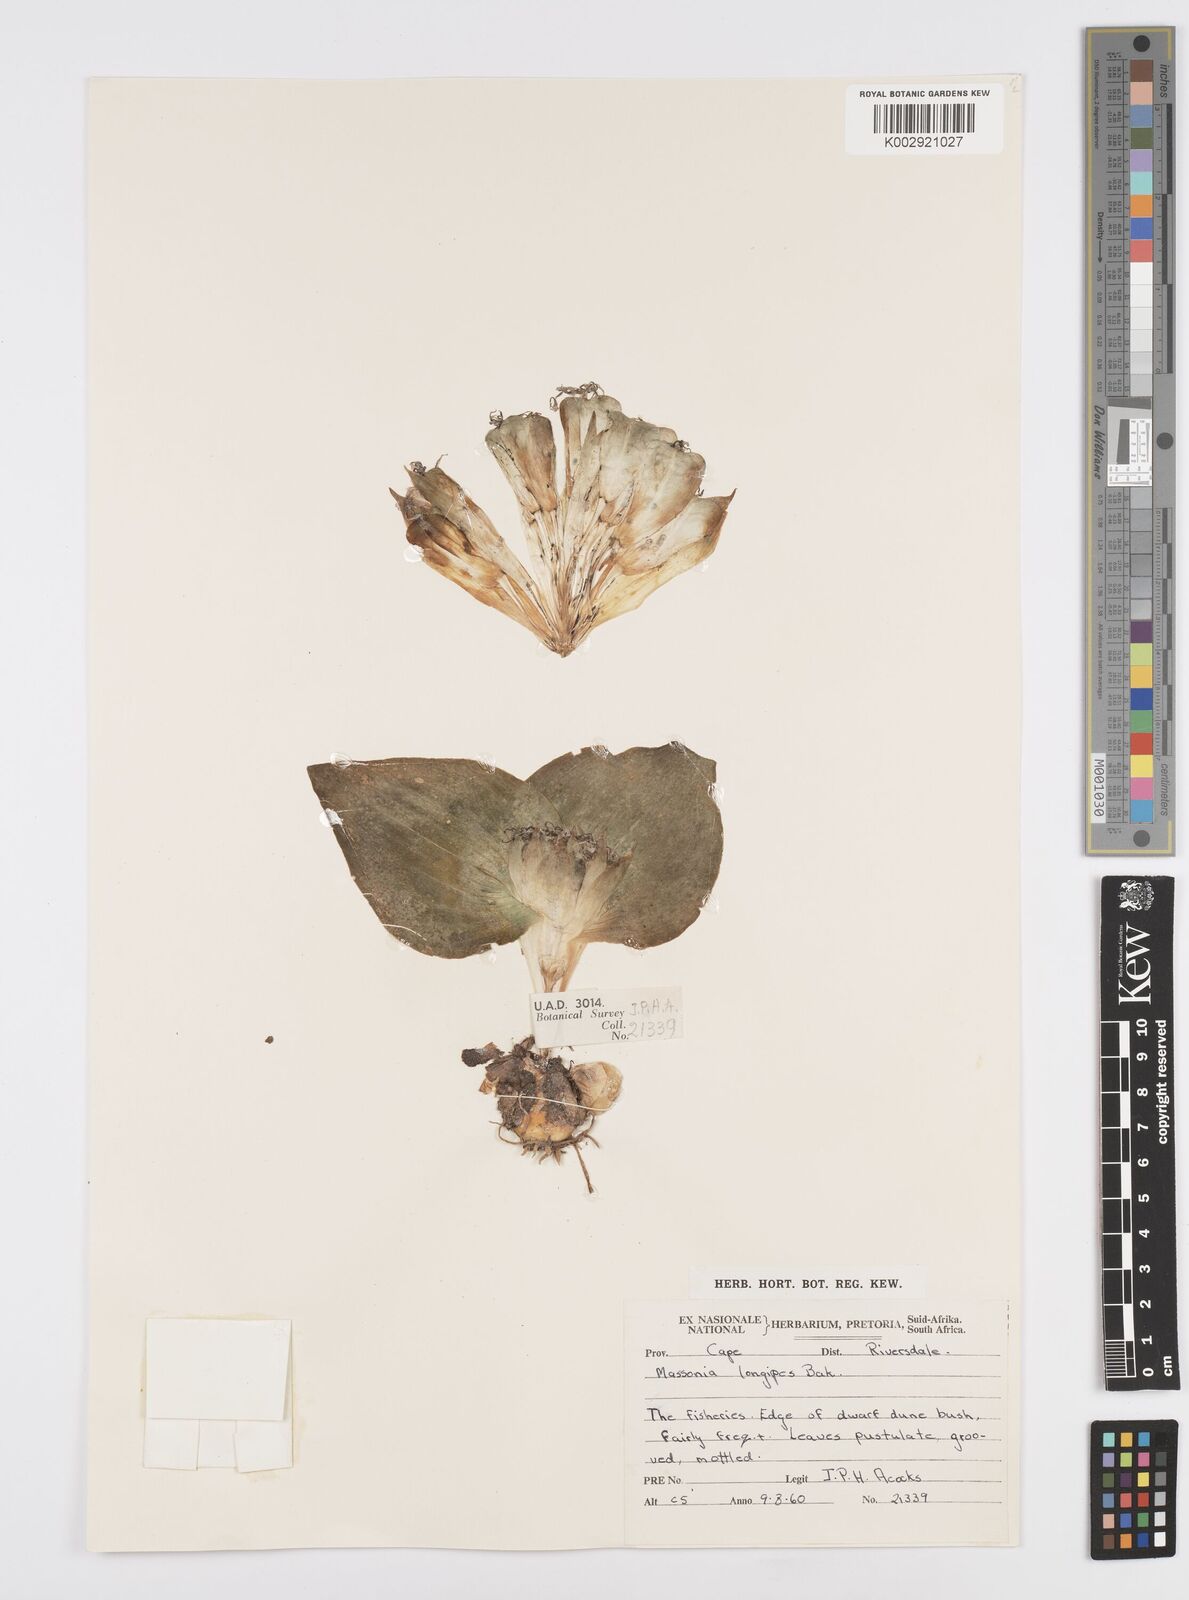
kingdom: Plantae
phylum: Tracheophyta
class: Liliopsida
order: Asparagales
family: Asparagaceae
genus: Massonia
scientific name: Massonia pustulata
